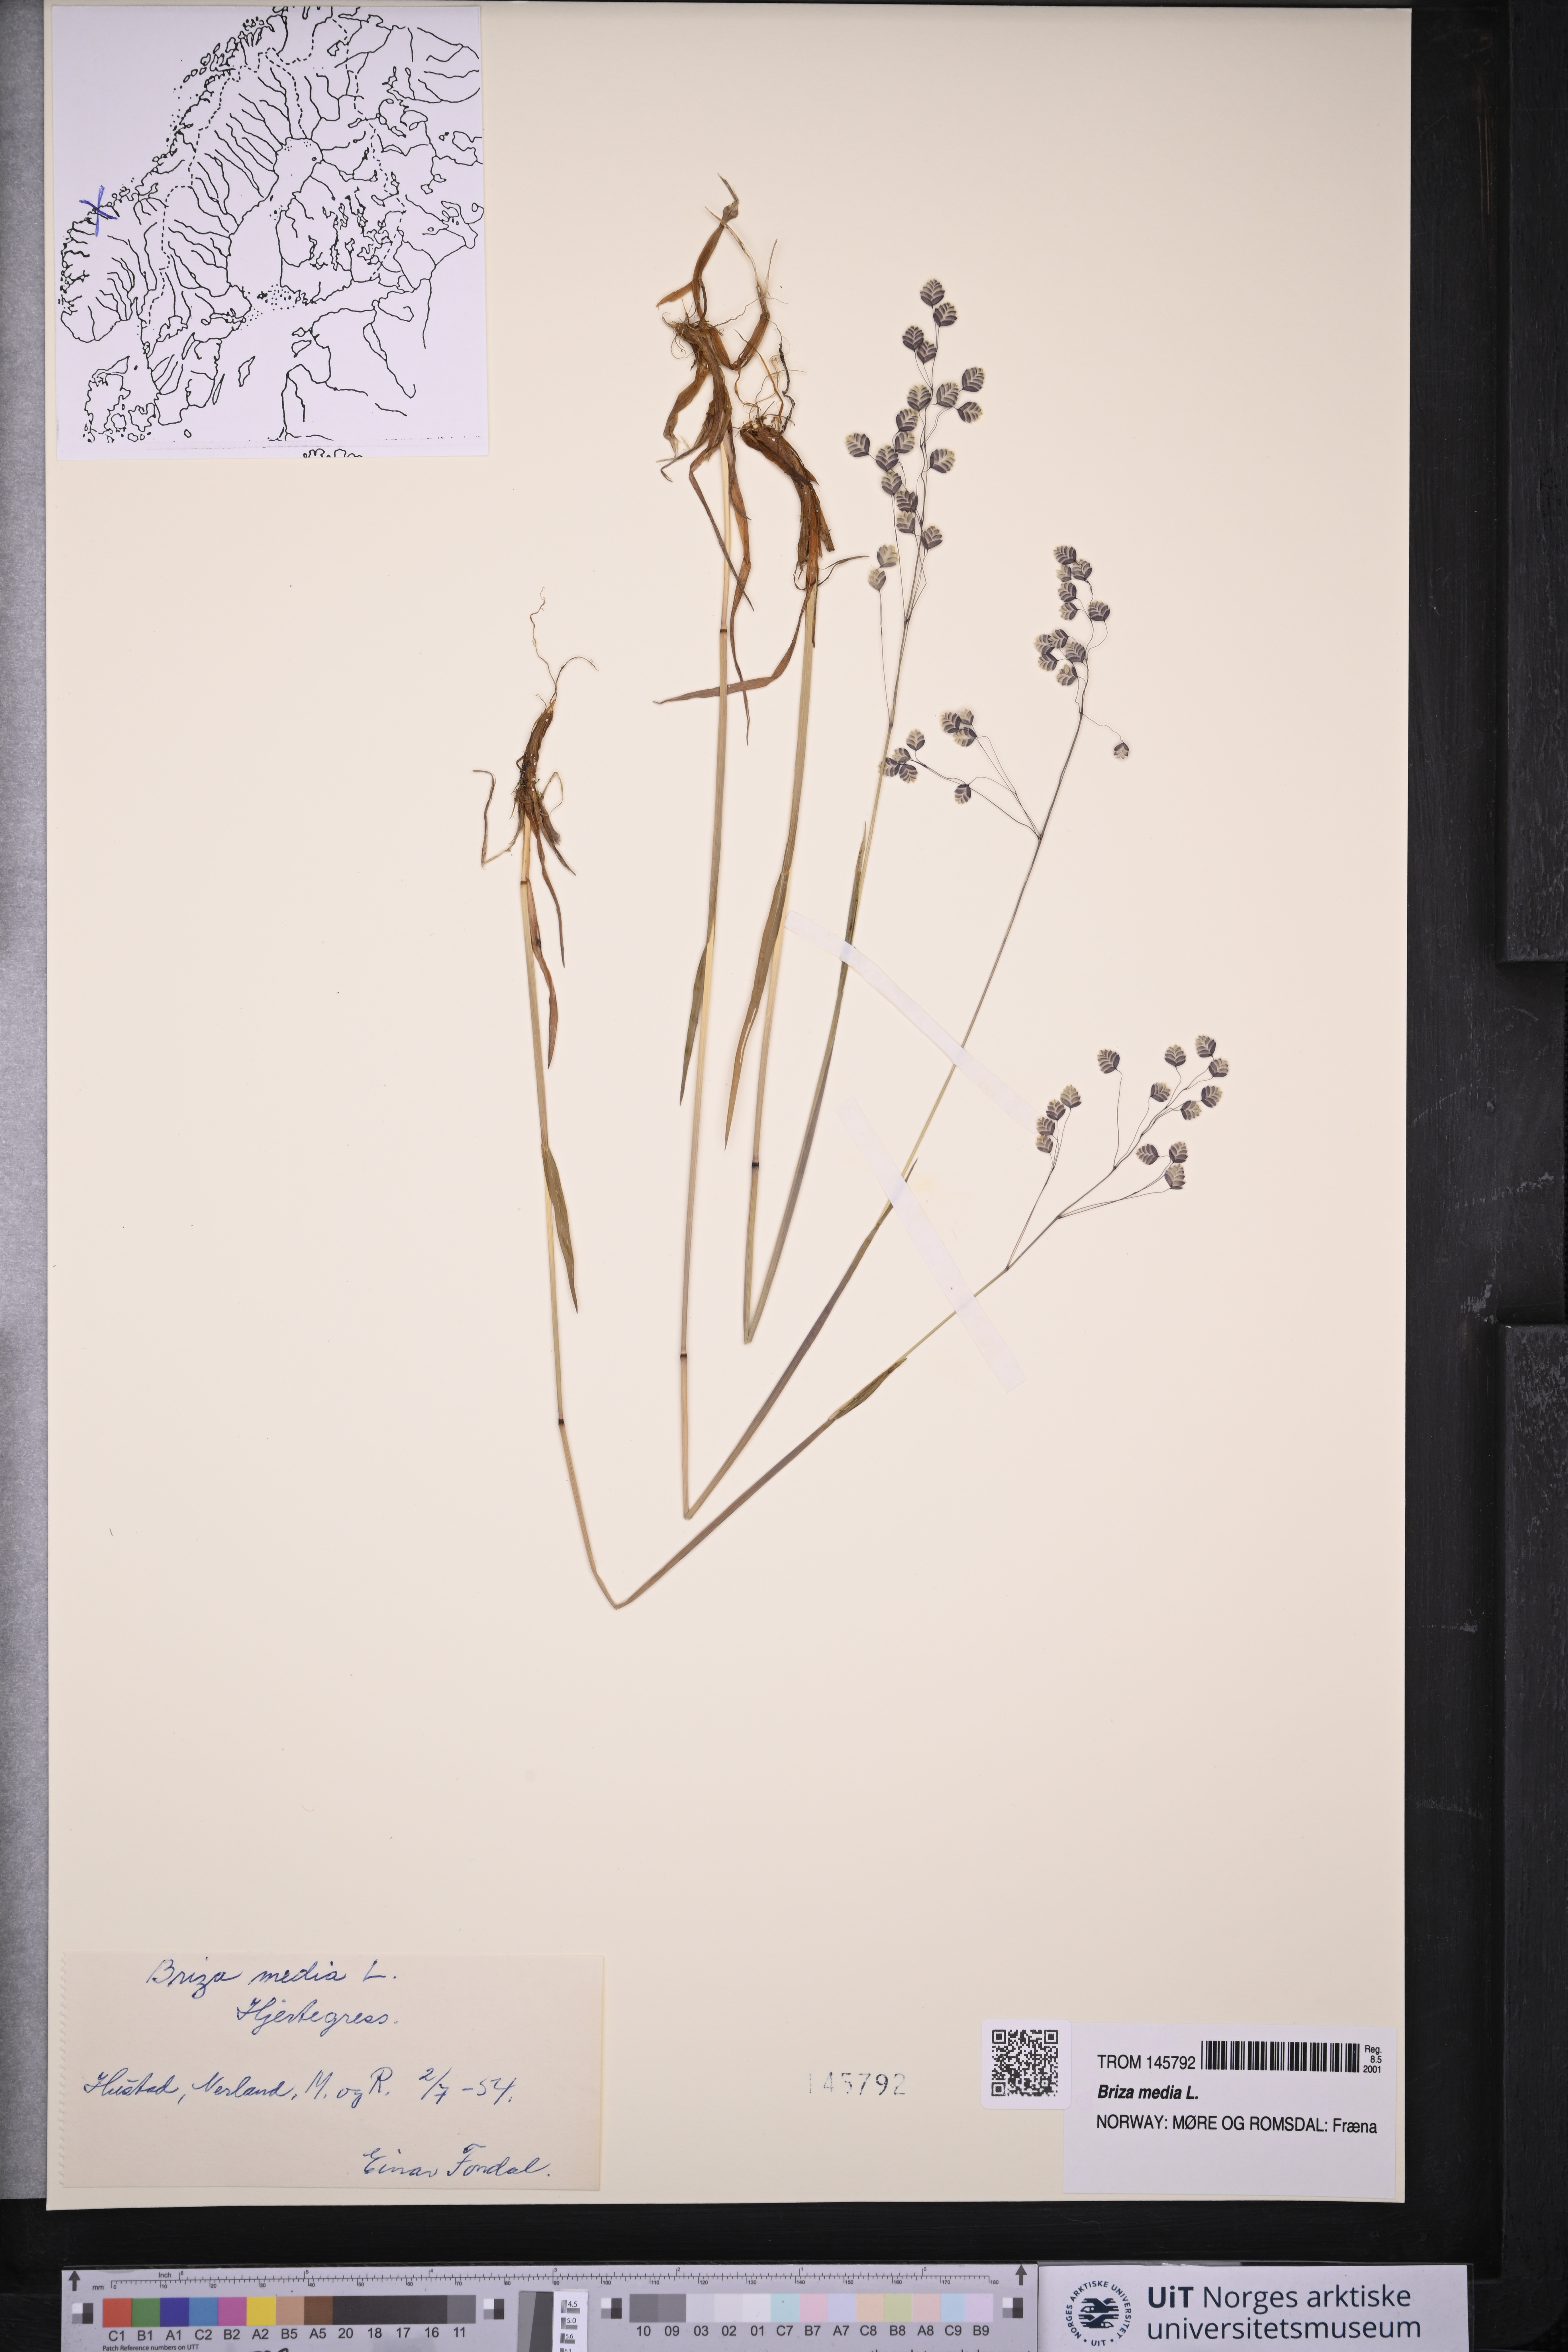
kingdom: Plantae
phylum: Tracheophyta
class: Liliopsida
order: Poales
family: Poaceae
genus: Briza
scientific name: Briza media
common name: Quaking grass
